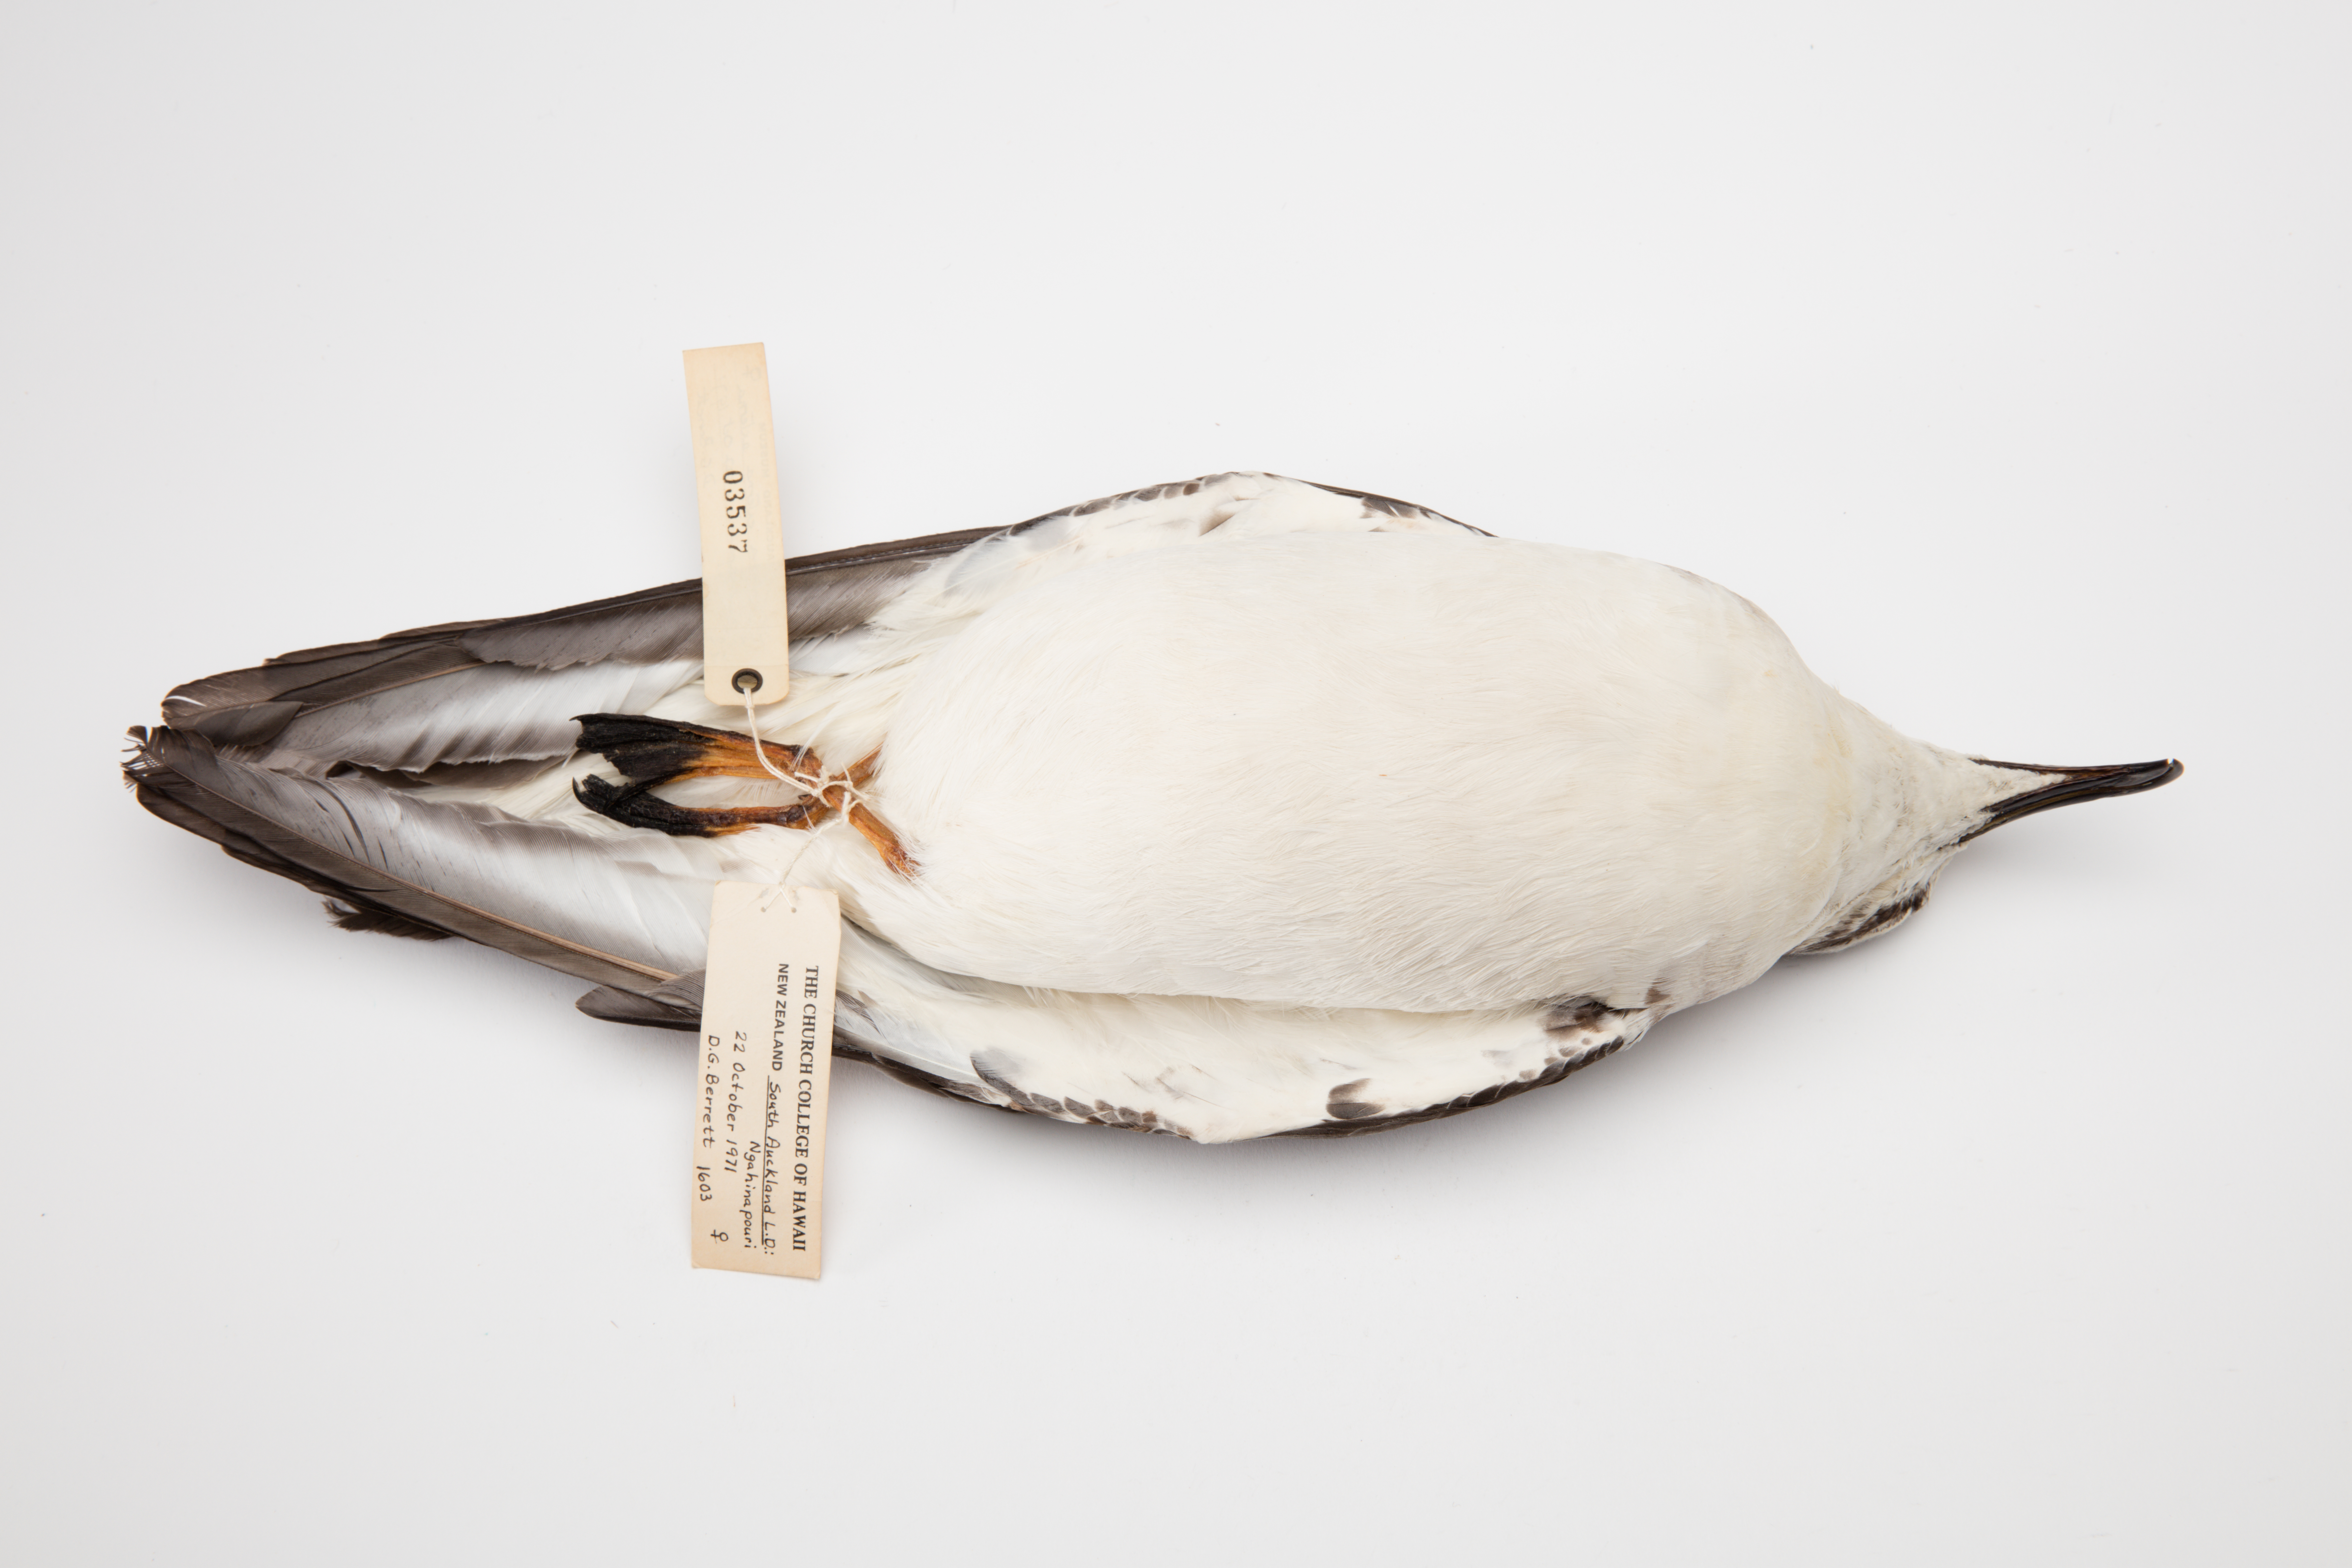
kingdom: Animalia
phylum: Chordata
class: Aves
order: Procellariiformes
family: Procellariidae
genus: Pterodroma
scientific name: Pterodroma externa
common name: Juan fernandez petrel
